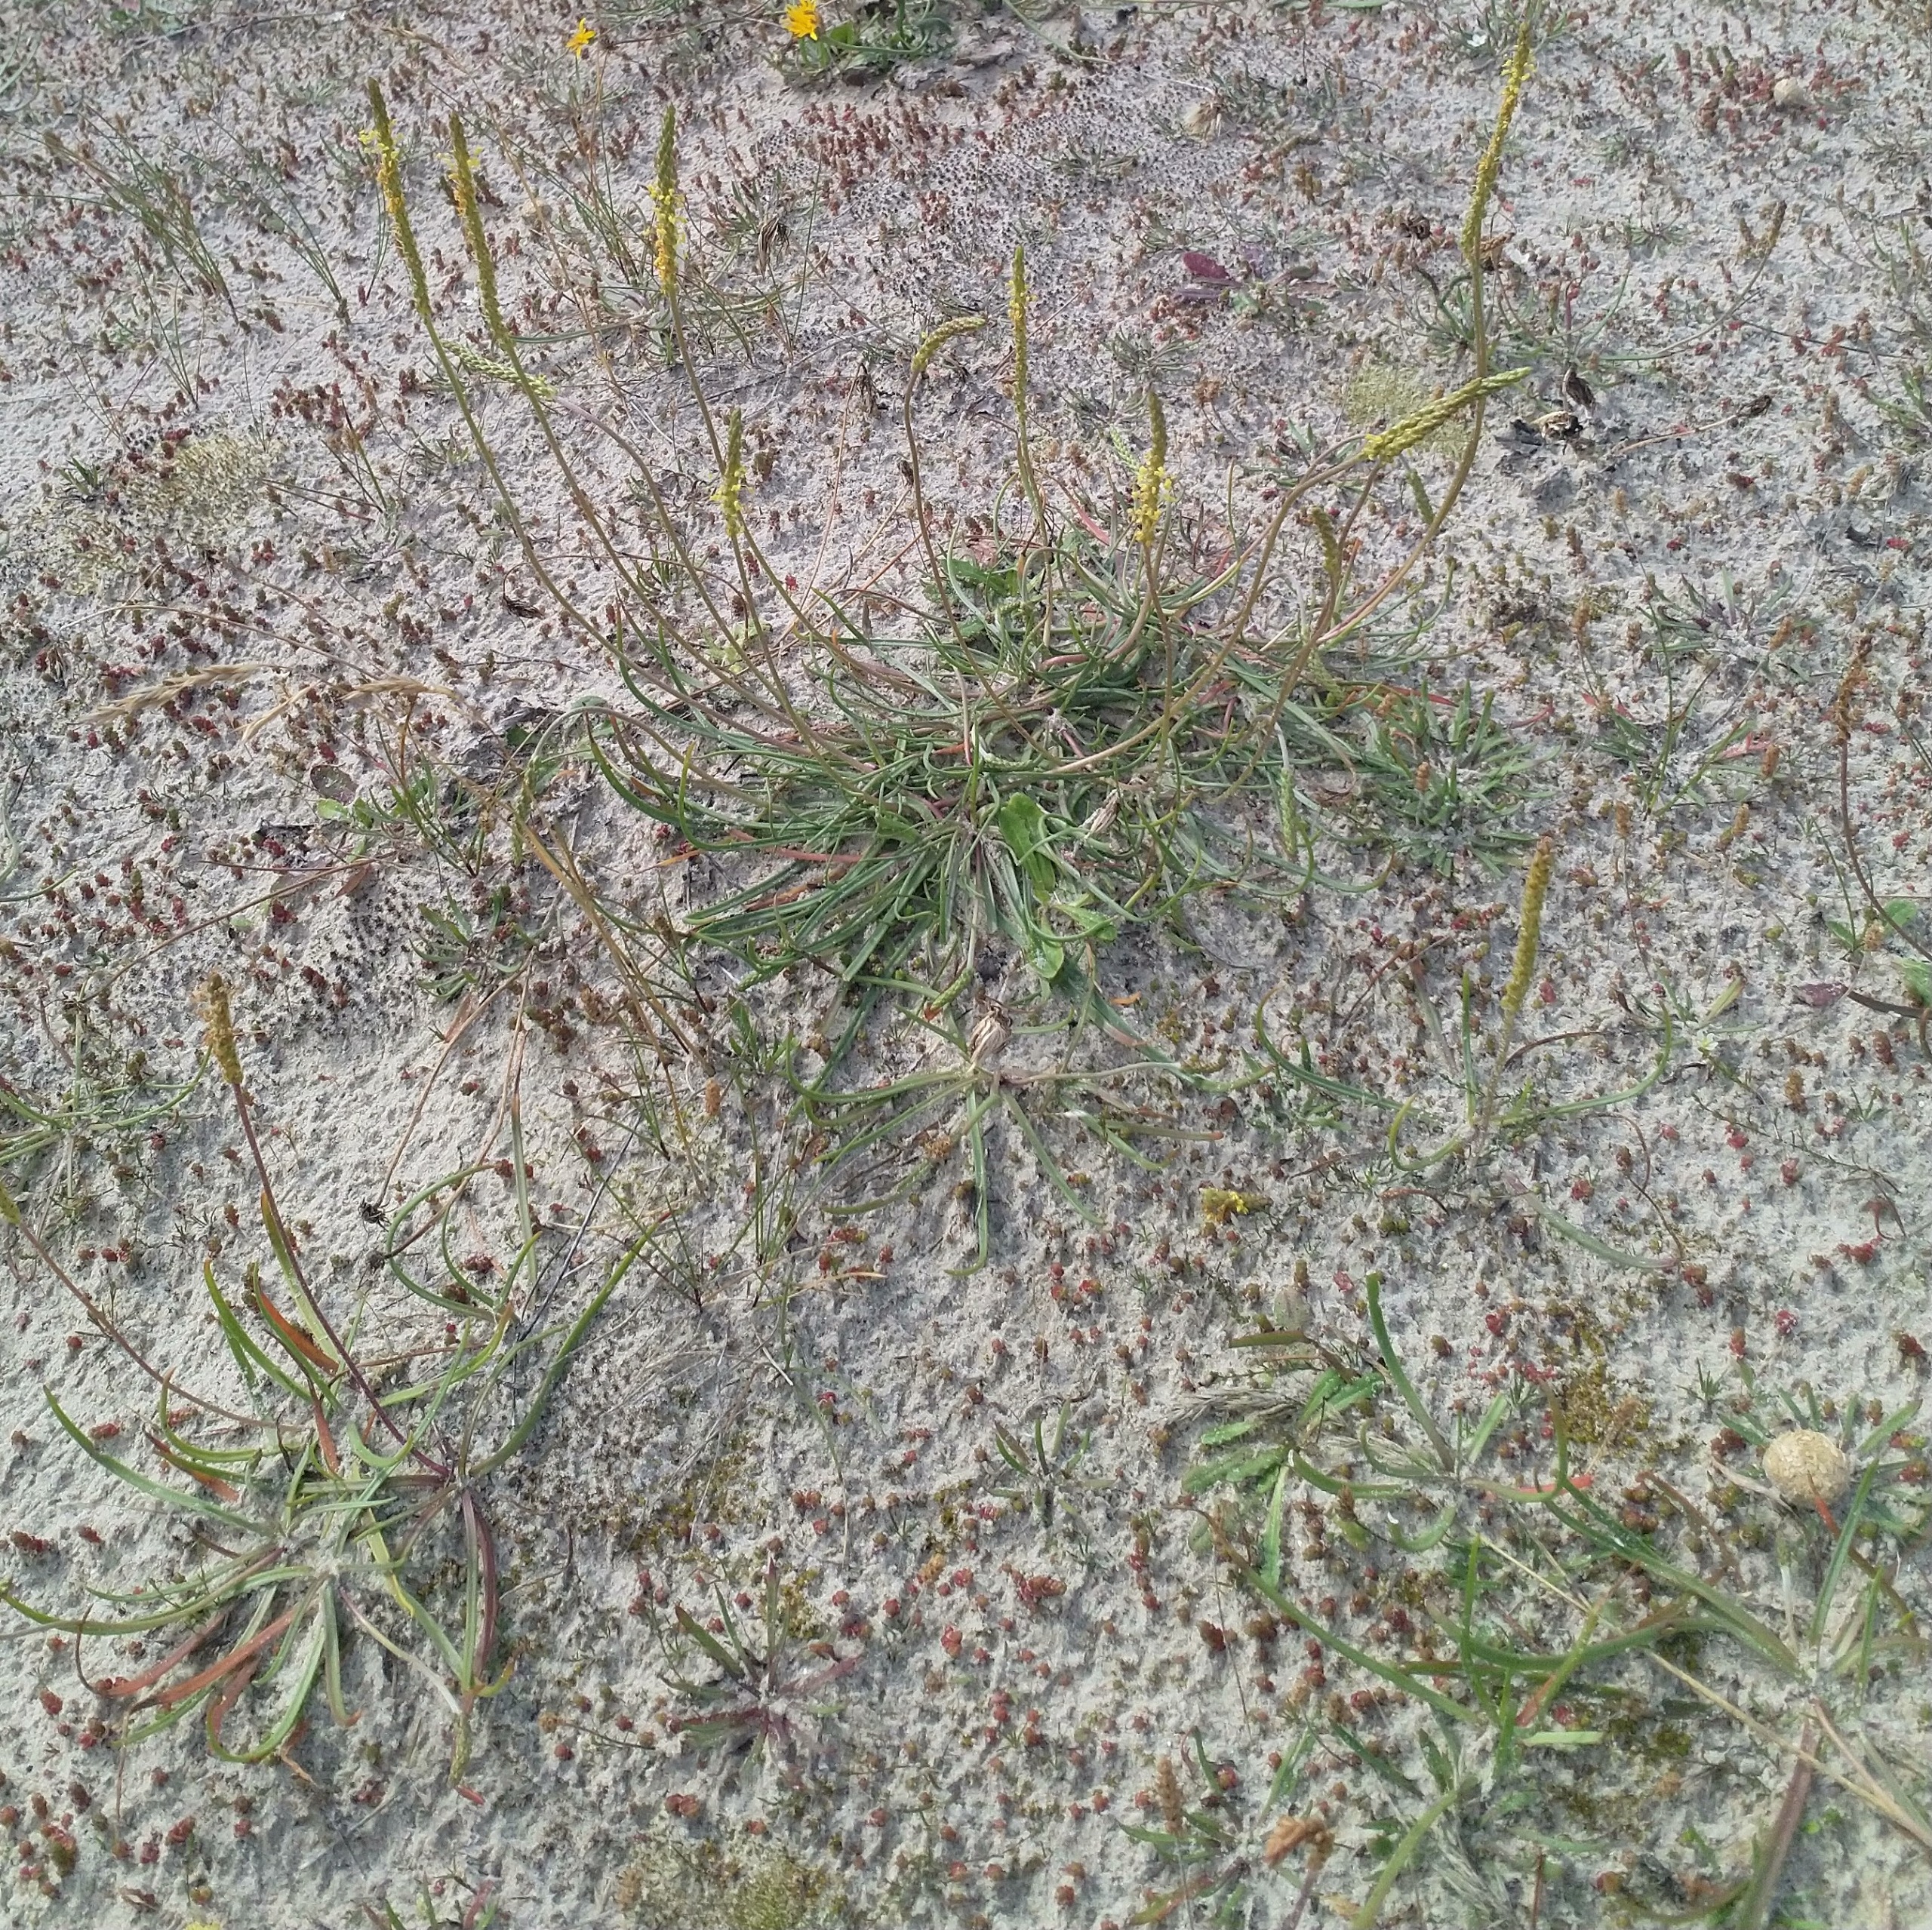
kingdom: Plantae
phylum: Tracheophyta
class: Magnoliopsida
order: Lamiales
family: Plantaginaceae
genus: Plantago
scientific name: Plantago maritima
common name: Strand-vejbred
